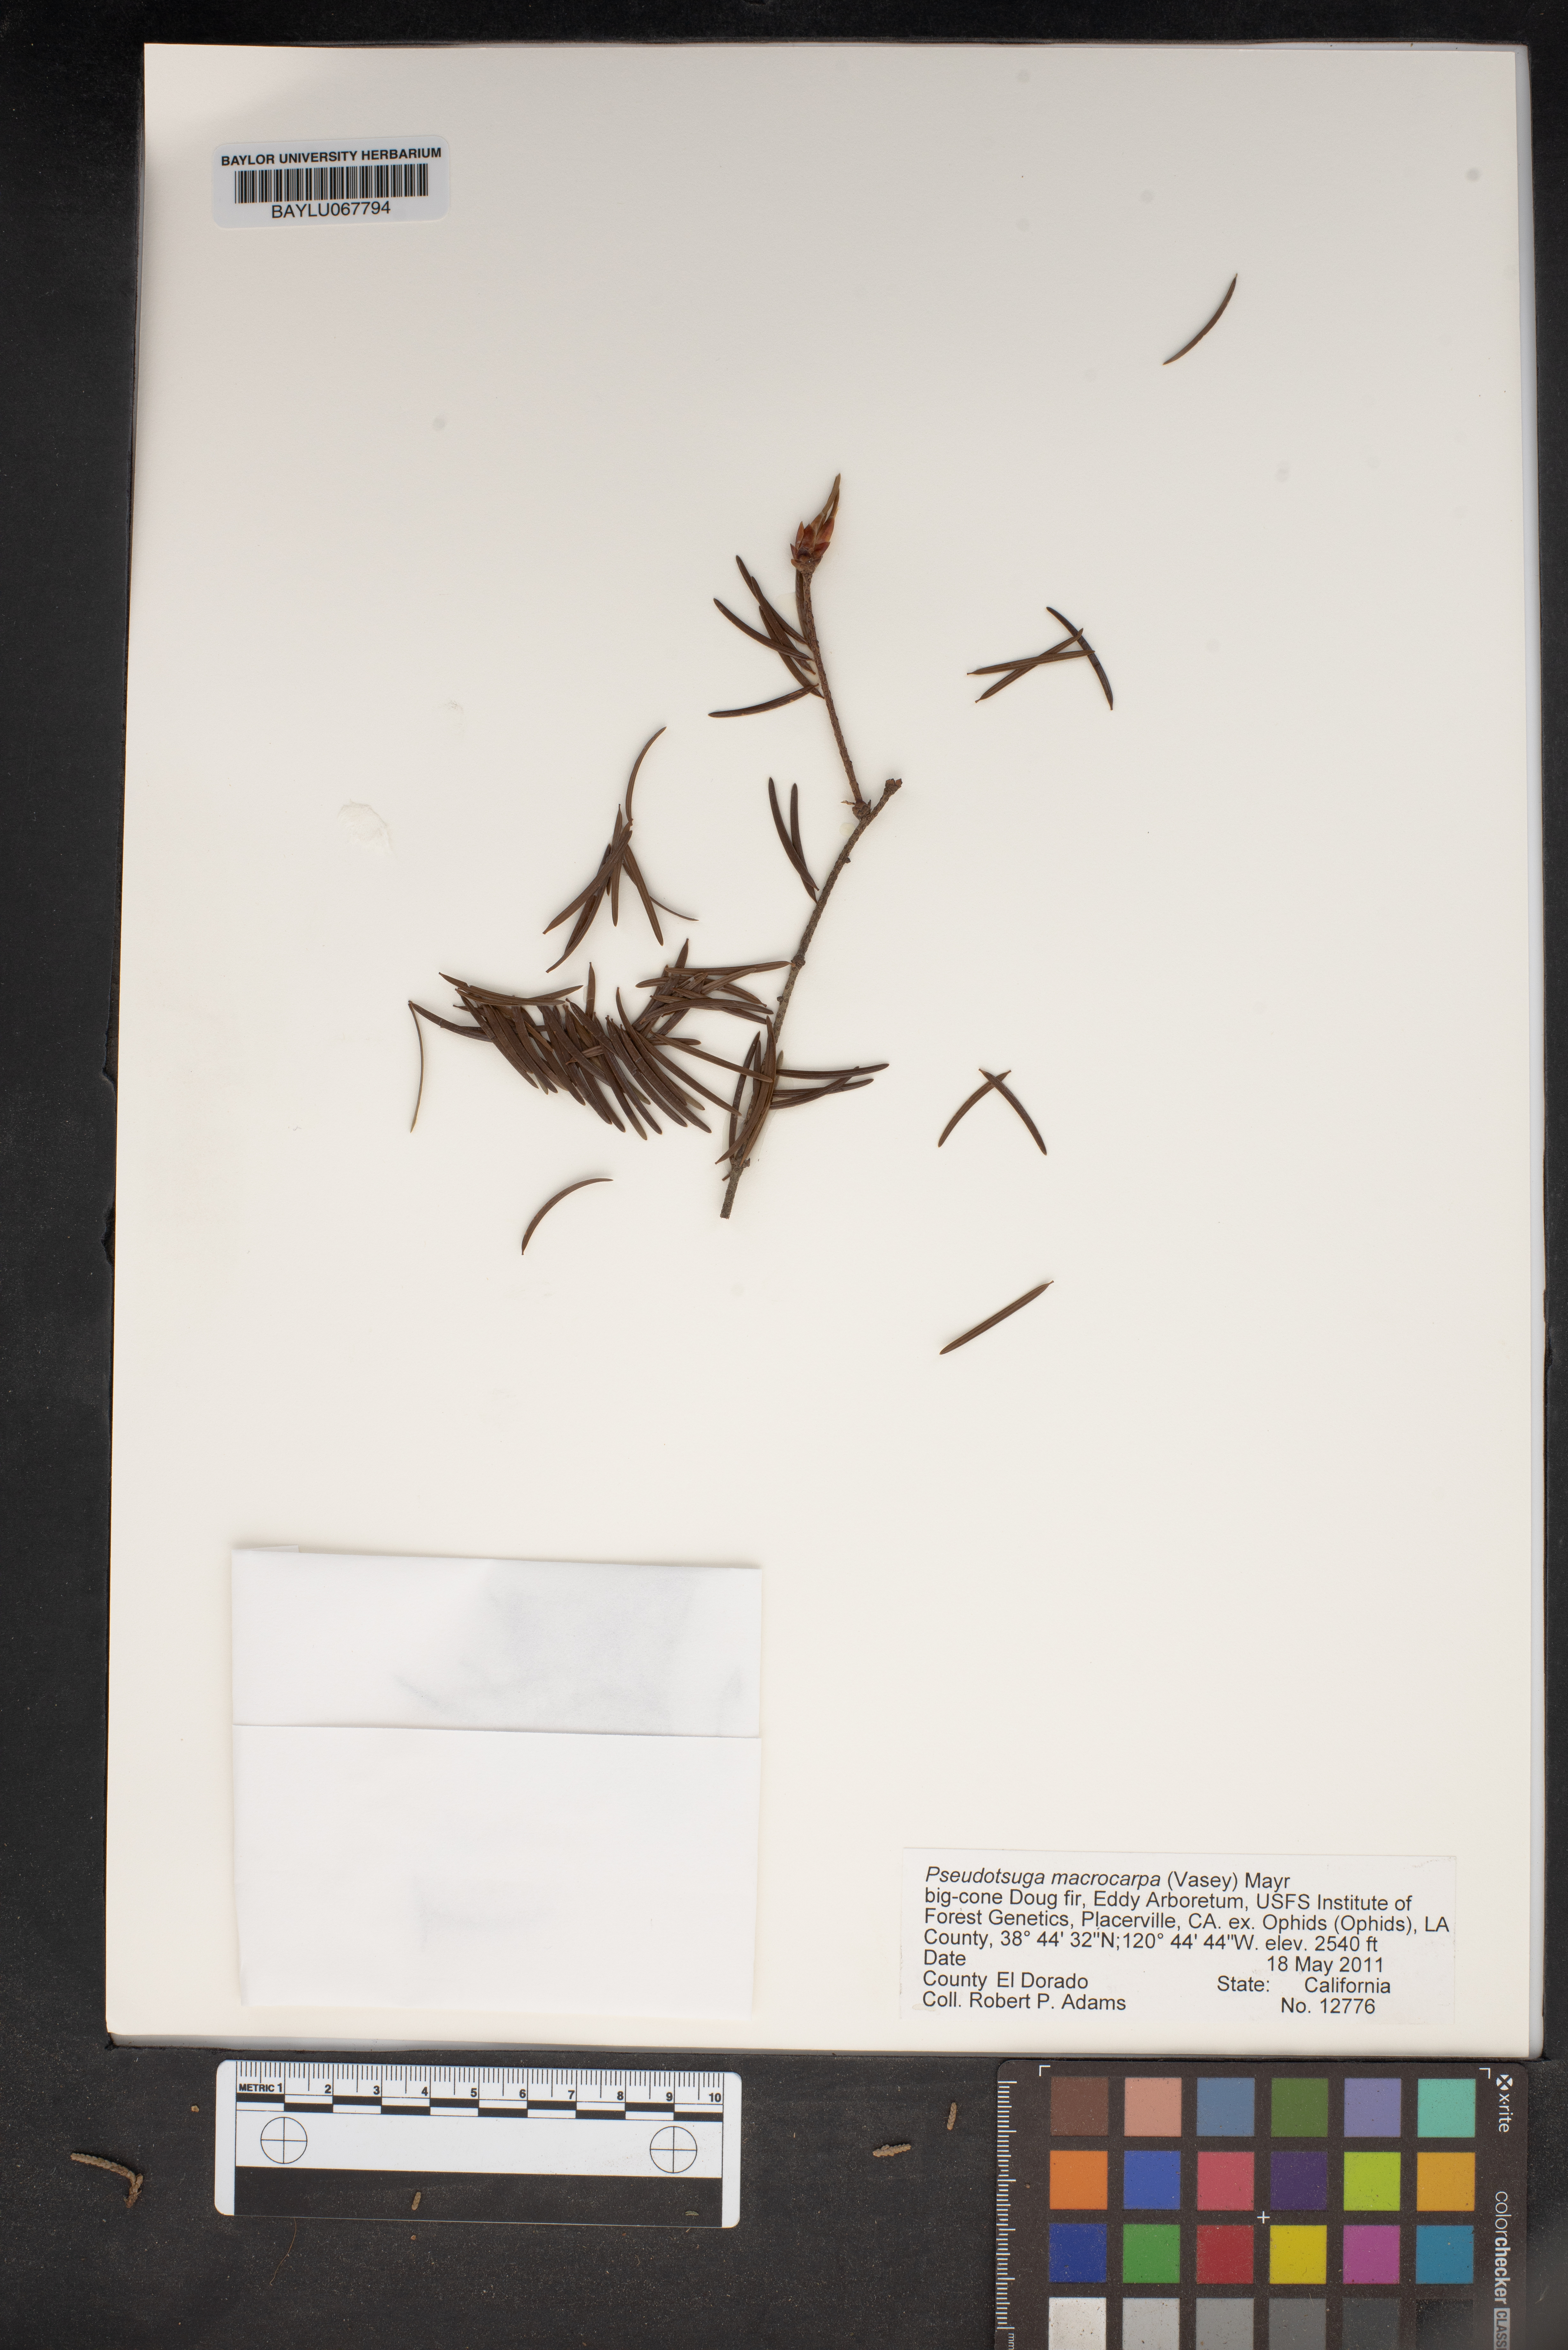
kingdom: Plantae
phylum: Tracheophyta
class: Pinopsida
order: Pinales
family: Pinaceae
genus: Pseudotsuga
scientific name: Pseudotsuga macrocarpa
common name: Big-cone douglas-fir
